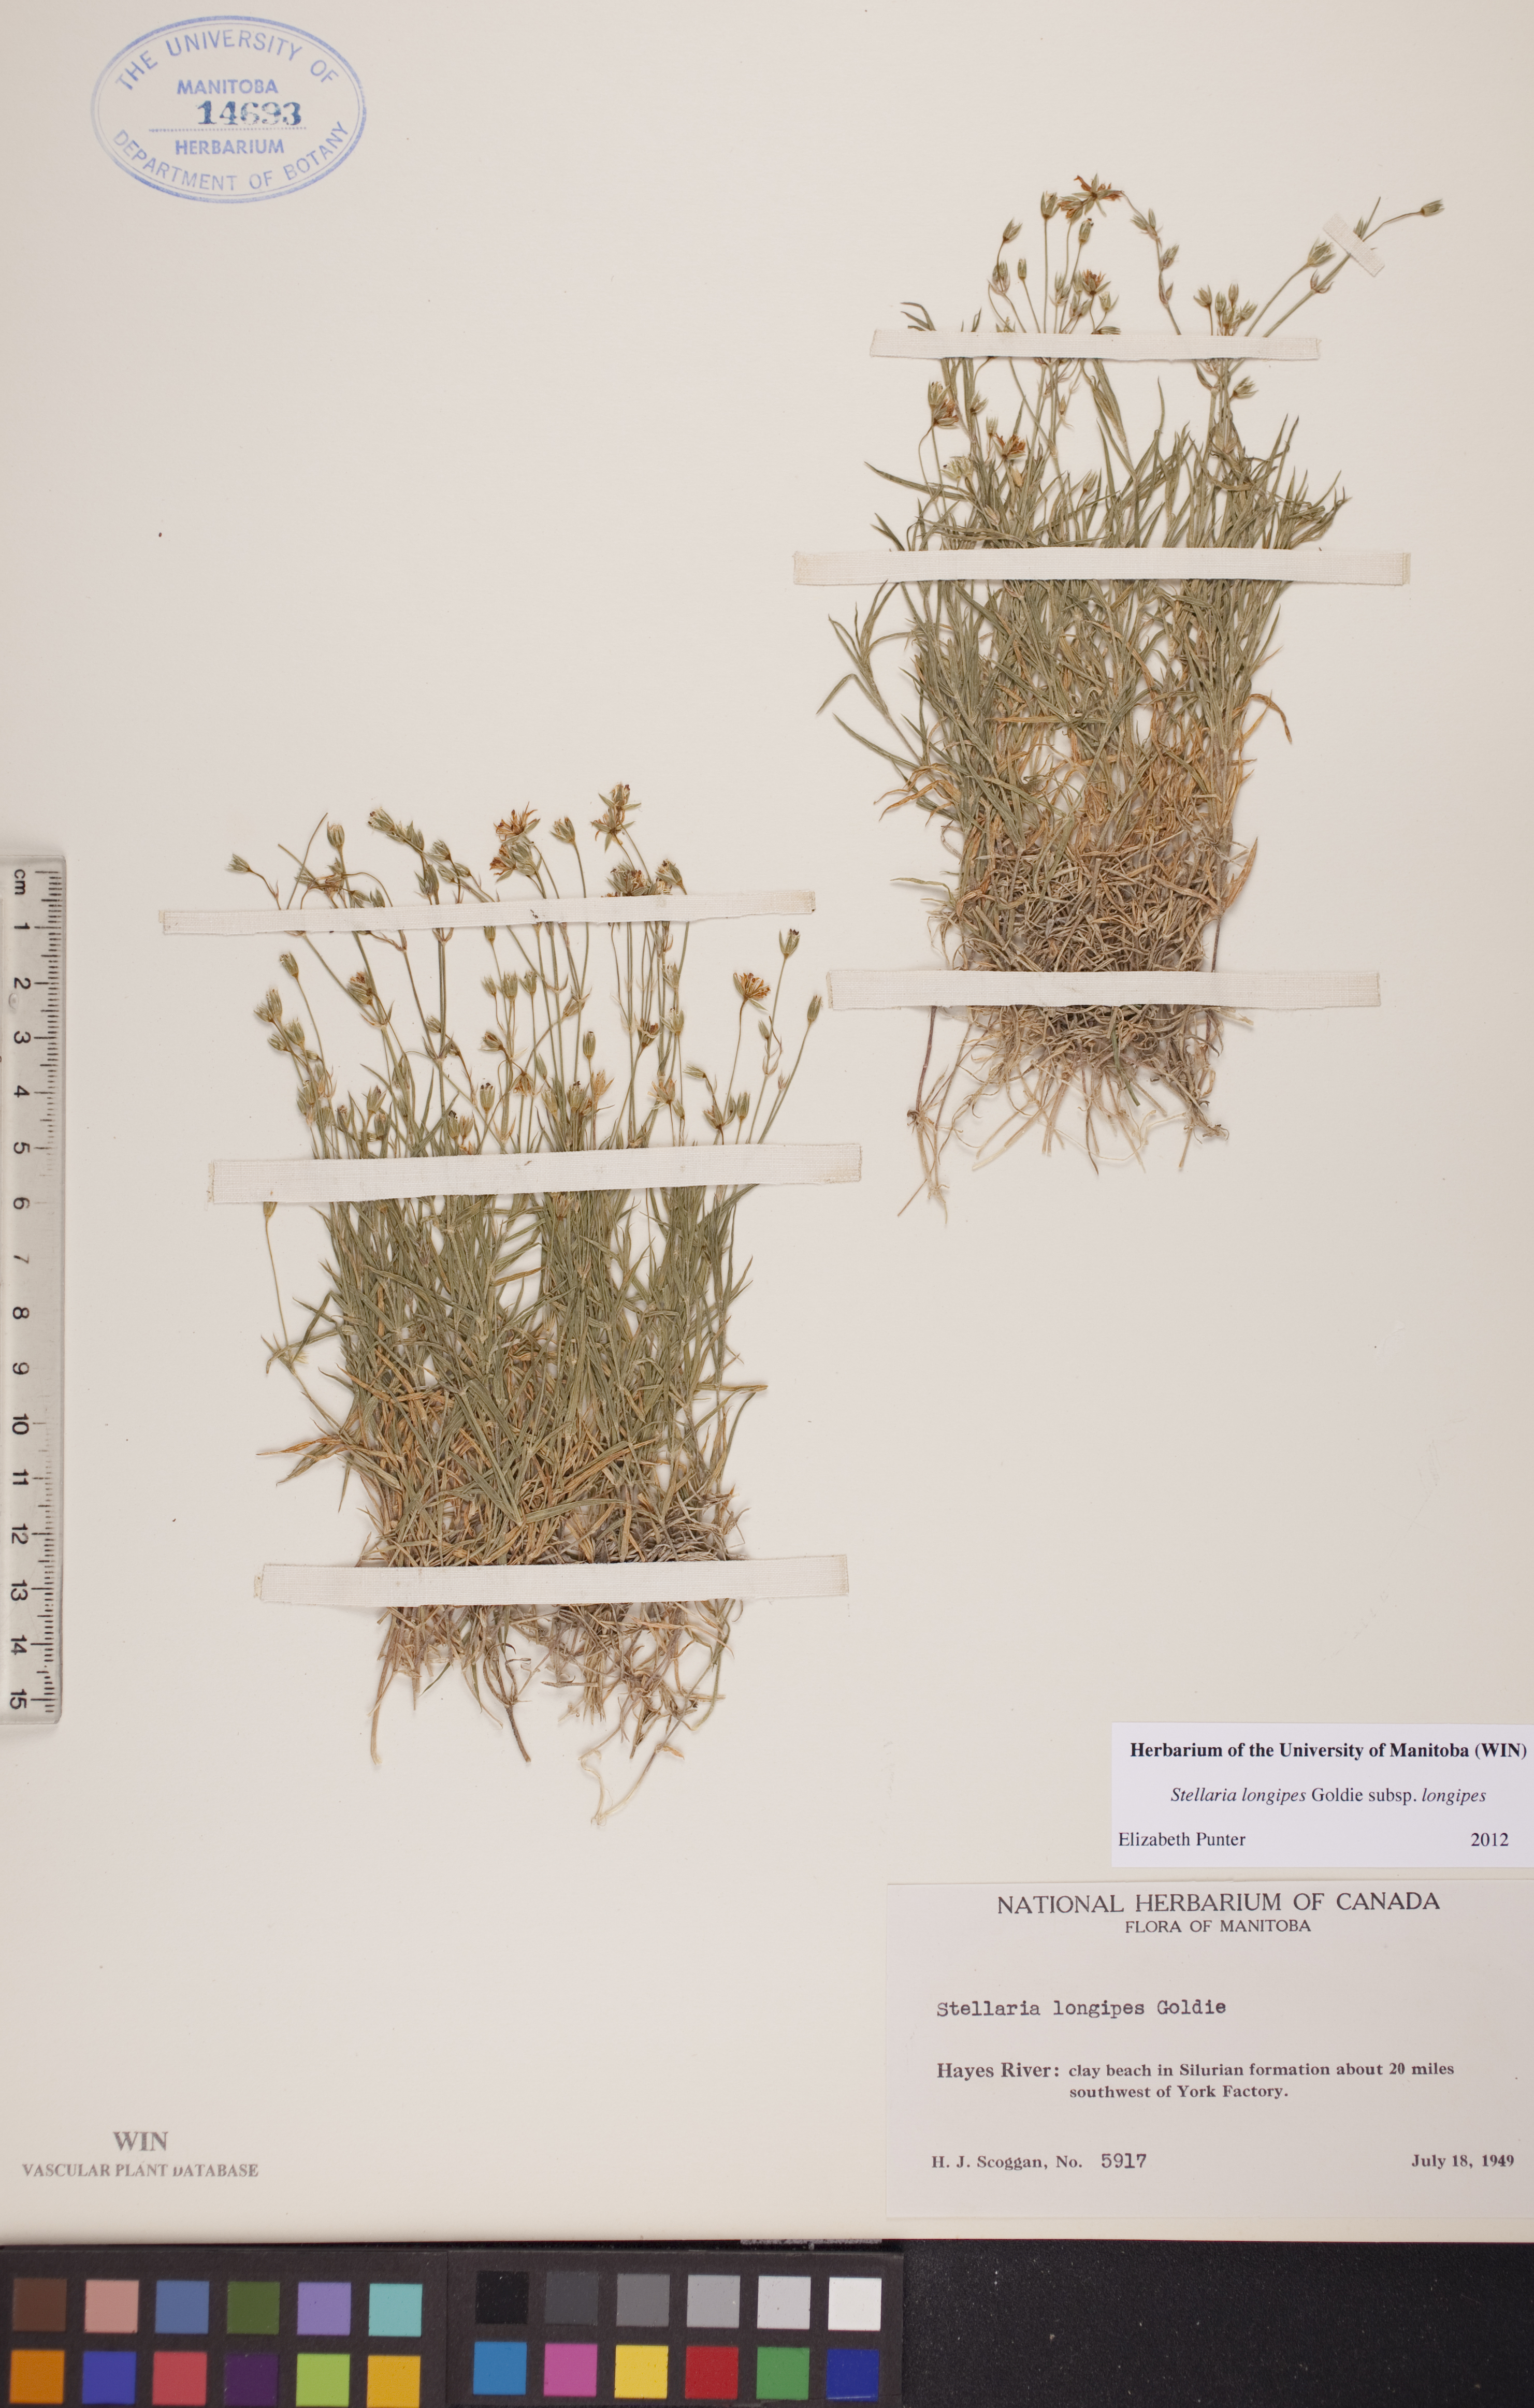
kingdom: Plantae
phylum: Tracheophyta
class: Magnoliopsida
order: Caryophyllales
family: Caryophyllaceae
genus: Stellaria
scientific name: Stellaria longipes
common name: Goldie's starwort
